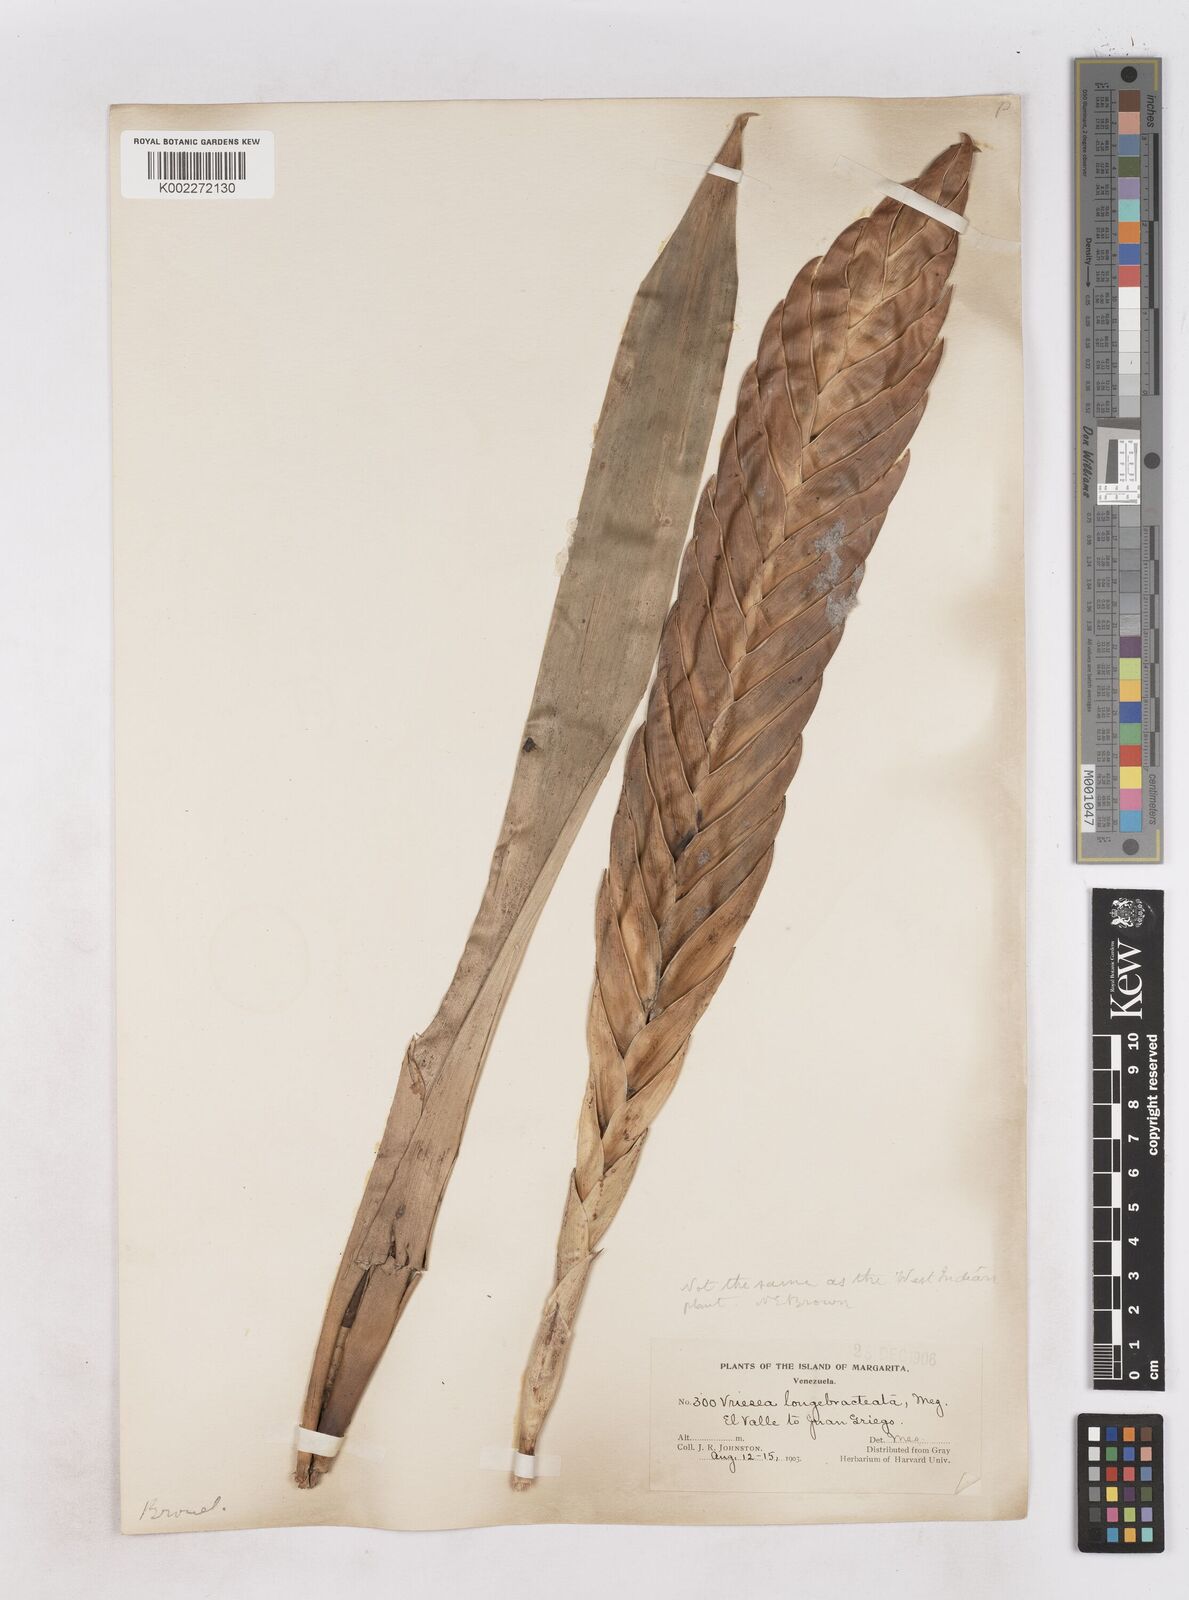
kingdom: Plantae
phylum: Tracheophyta
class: Liliopsida
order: Poales
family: Bromeliaceae
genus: Lutheria
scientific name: Lutheria splendens
